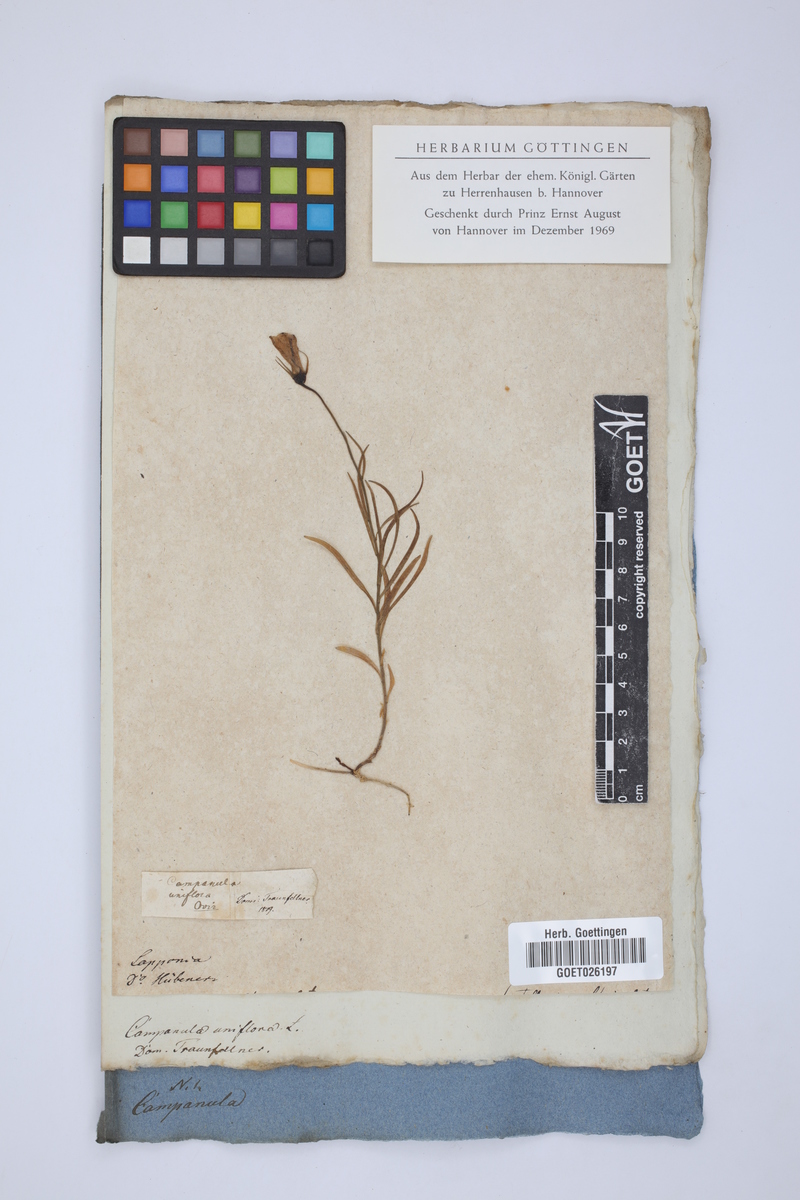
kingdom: Plantae
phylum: Tracheophyta
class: Magnoliopsida
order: Asterales
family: Campanulaceae
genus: Melanocalyx
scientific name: Melanocalyx uniflora
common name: Alpine harebell
